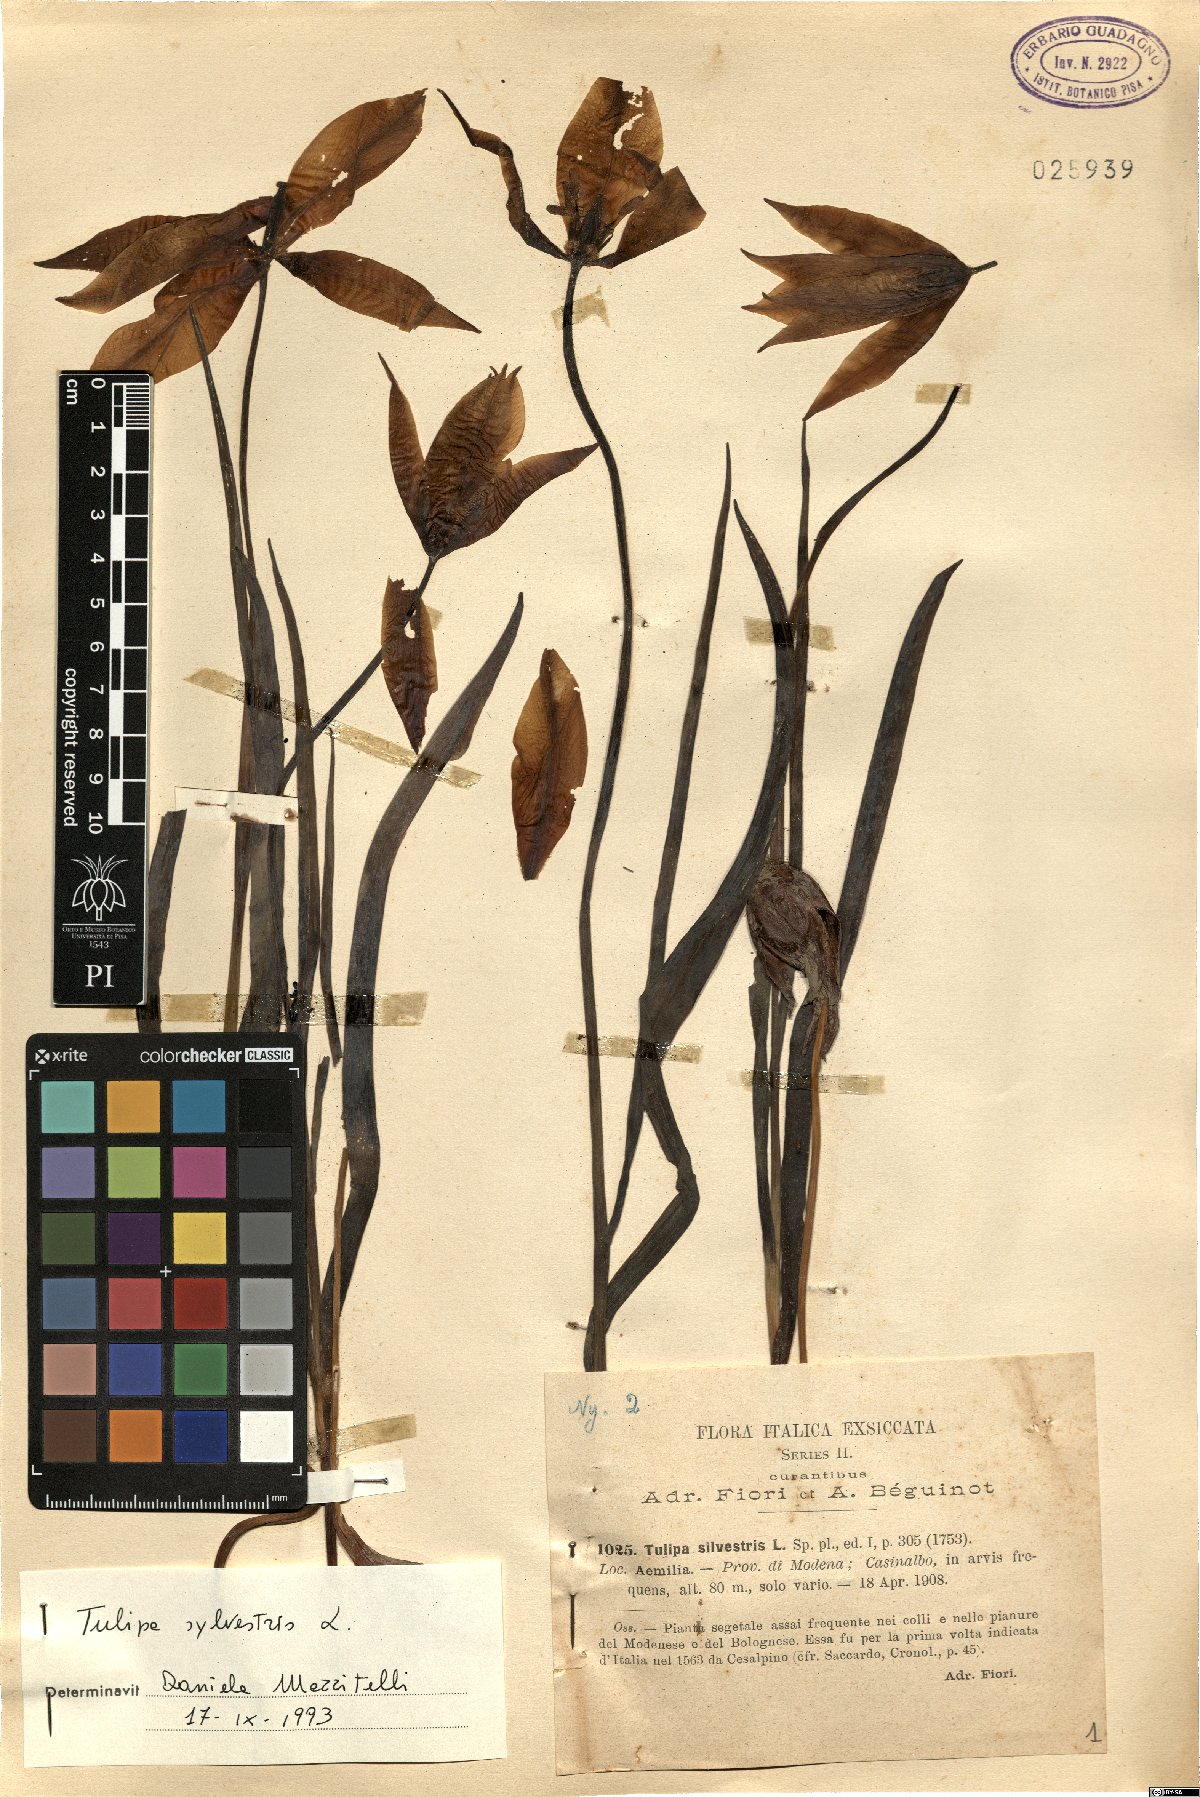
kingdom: Plantae
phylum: Tracheophyta
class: Liliopsida
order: Liliales
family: Liliaceae
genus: Tulipa
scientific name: Tulipa sylvestris
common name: Wild tulip
